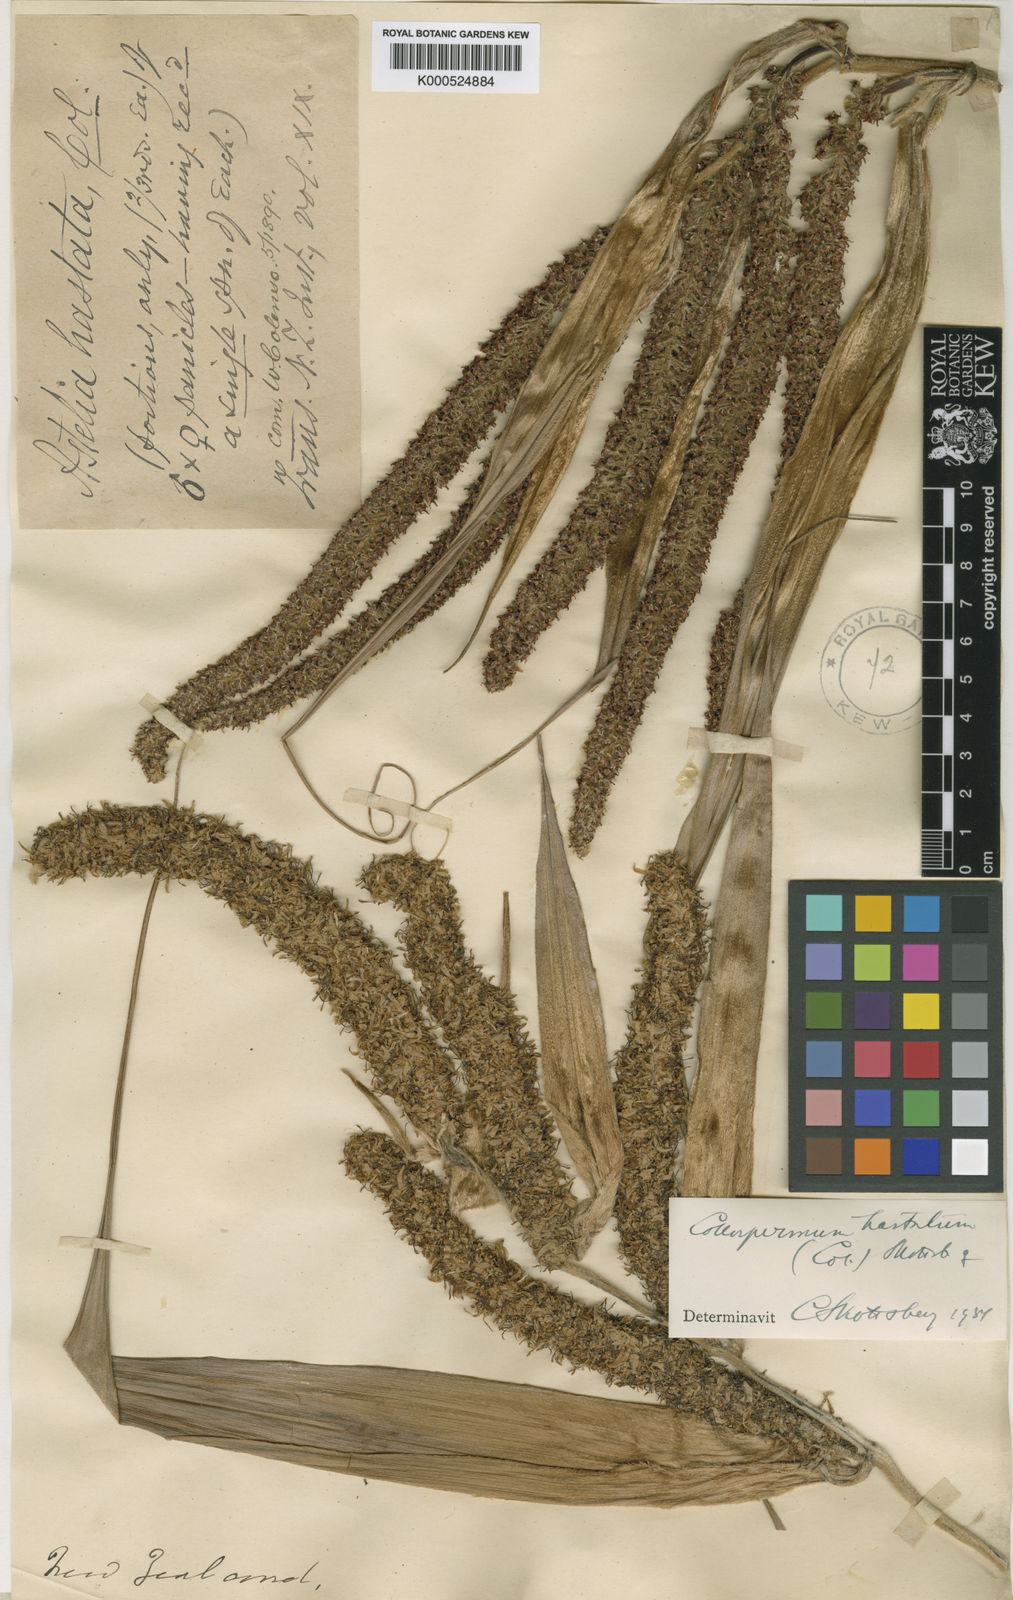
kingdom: Plantae
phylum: Tracheophyta
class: Liliopsida
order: Asparagales
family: Asteliaceae
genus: Astelia
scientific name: Astelia hastata
